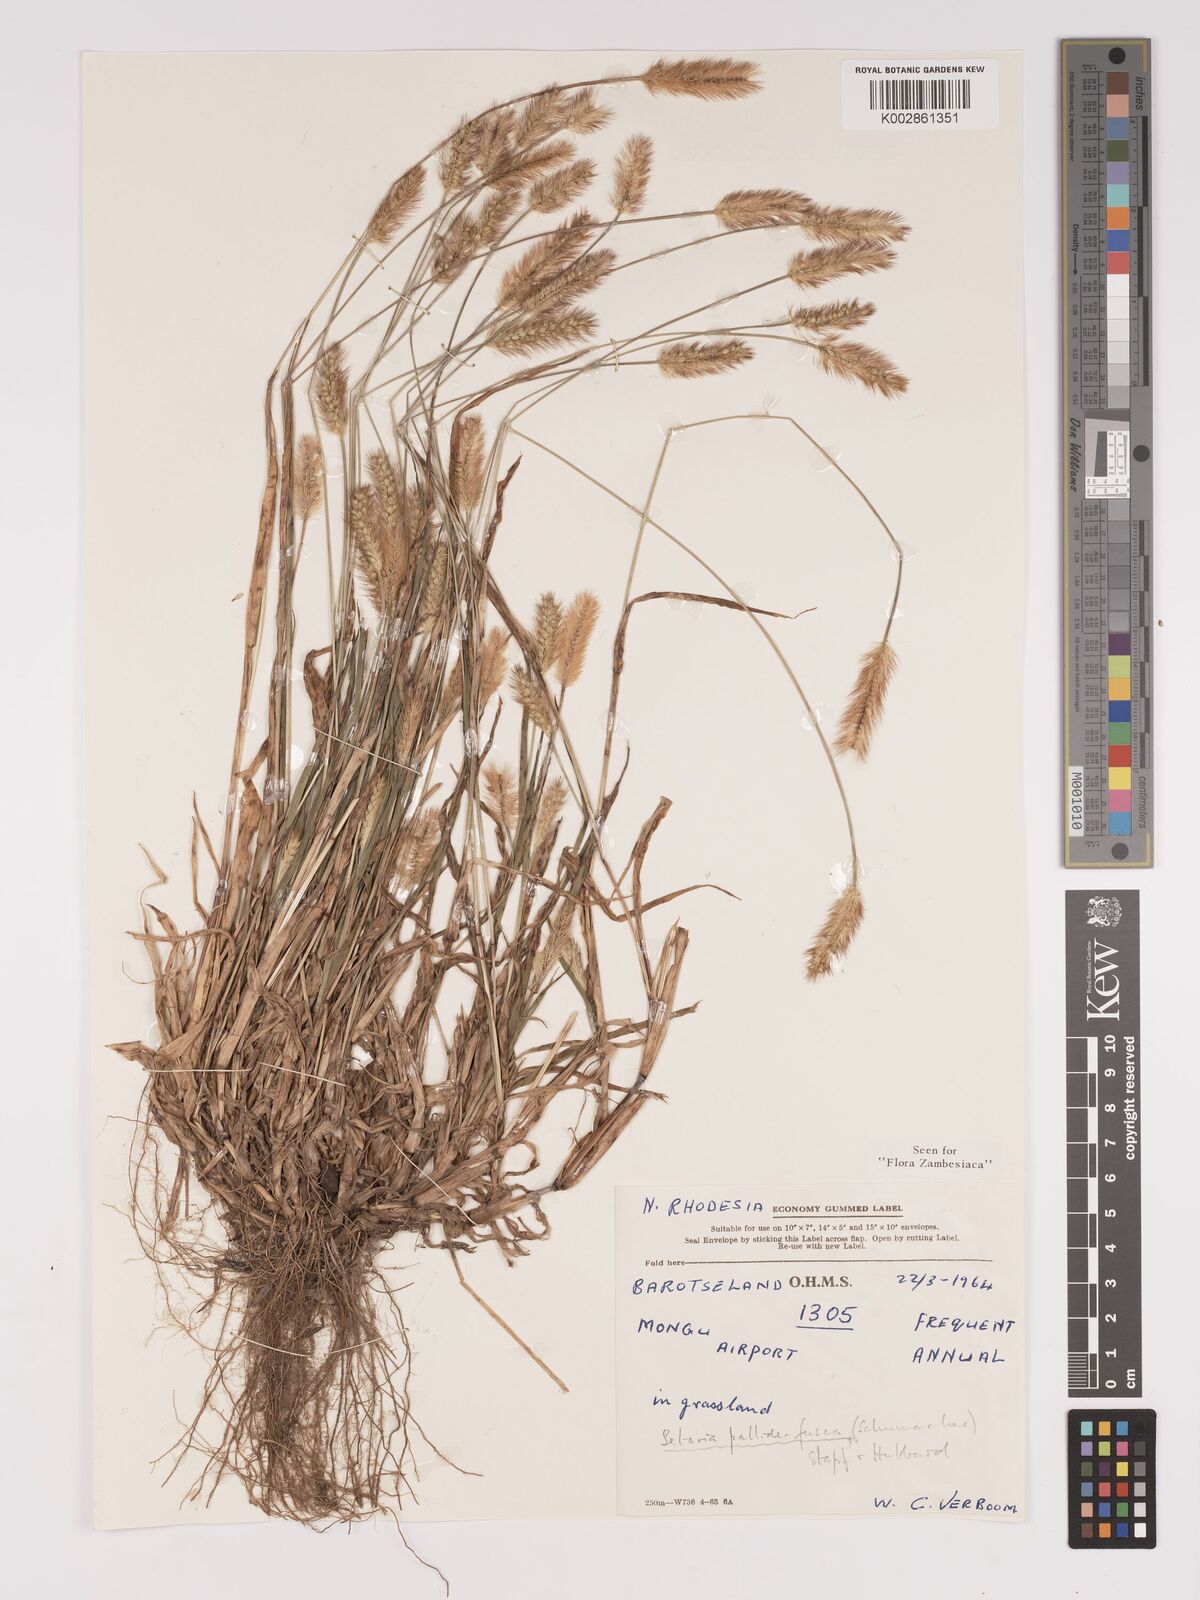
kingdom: Plantae
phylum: Tracheophyta
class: Liliopsida
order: Poales
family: Poaceae
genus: Setaria
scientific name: Setaria pumila
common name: Yellow bristle-grass
